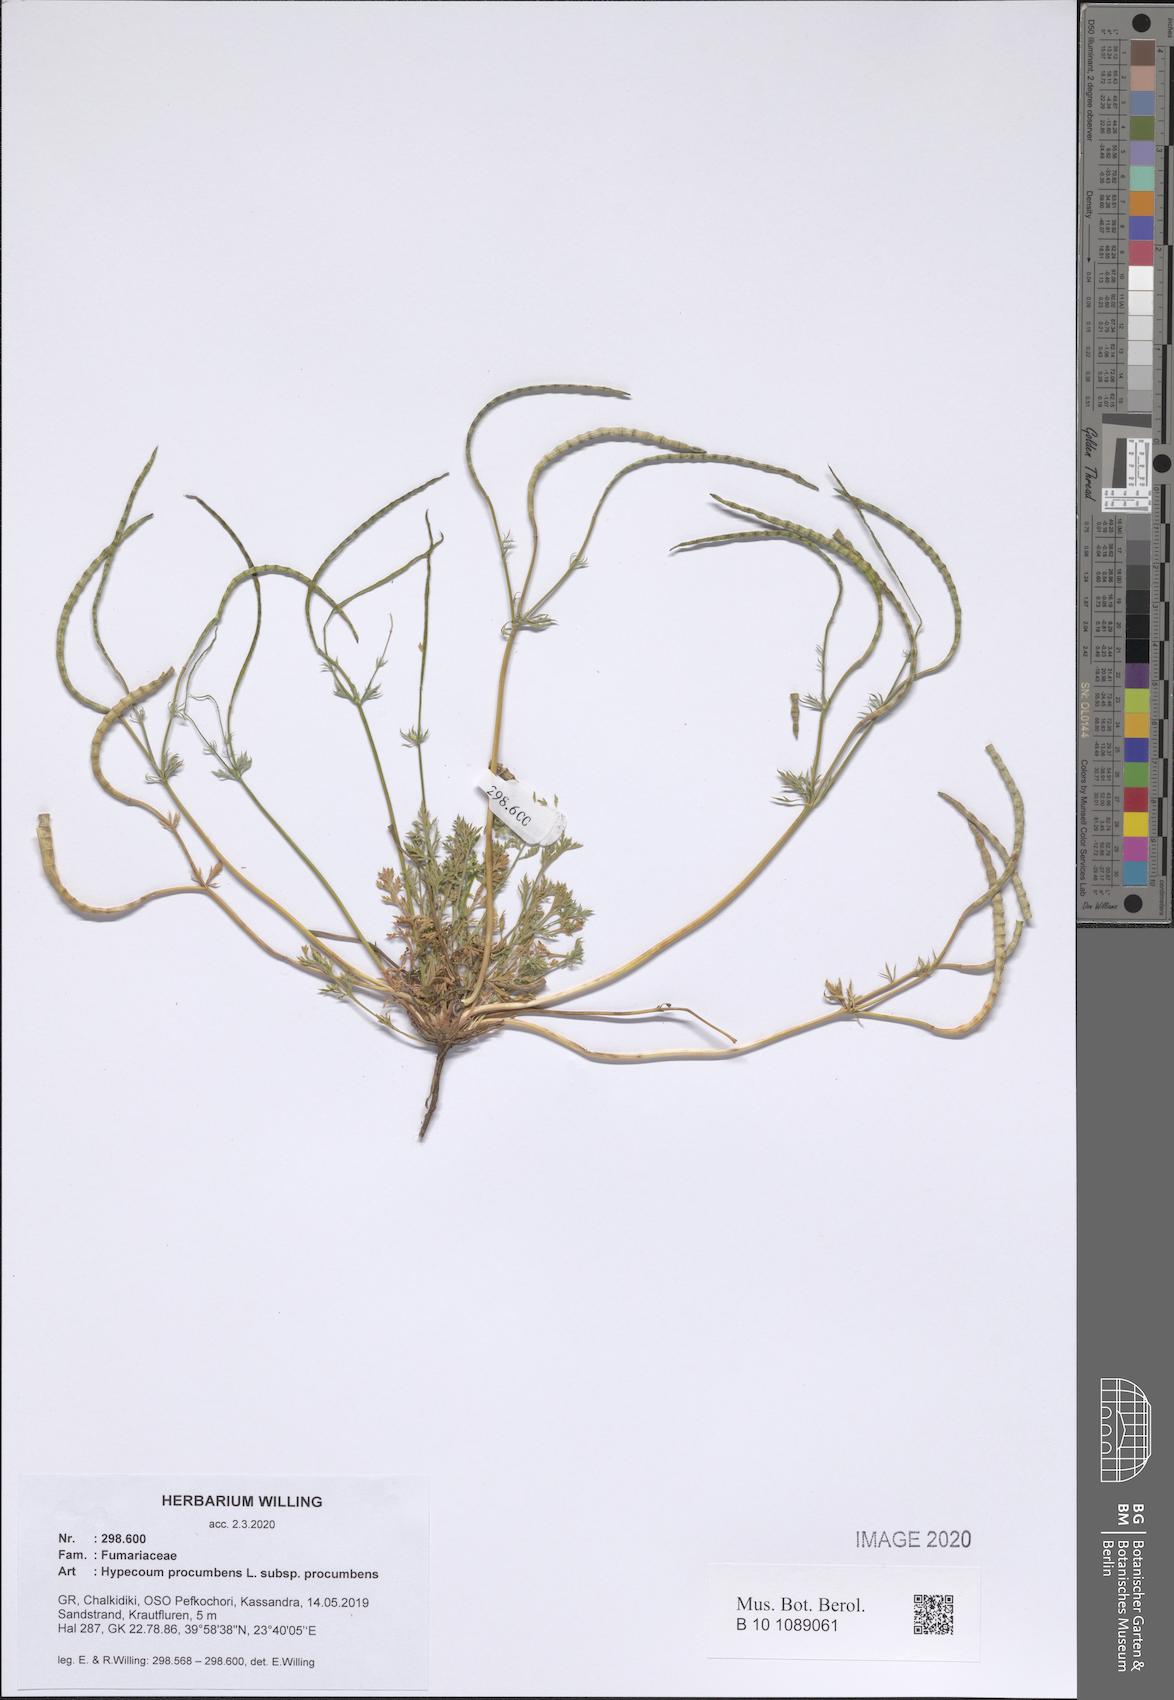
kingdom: Plantae
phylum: Tracheophyta
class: Magnoliopsida
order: Ranunculales
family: Papaveraceae
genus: Hypecoum
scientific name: Hypecoum procumbens
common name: Procumbent hypecoum
